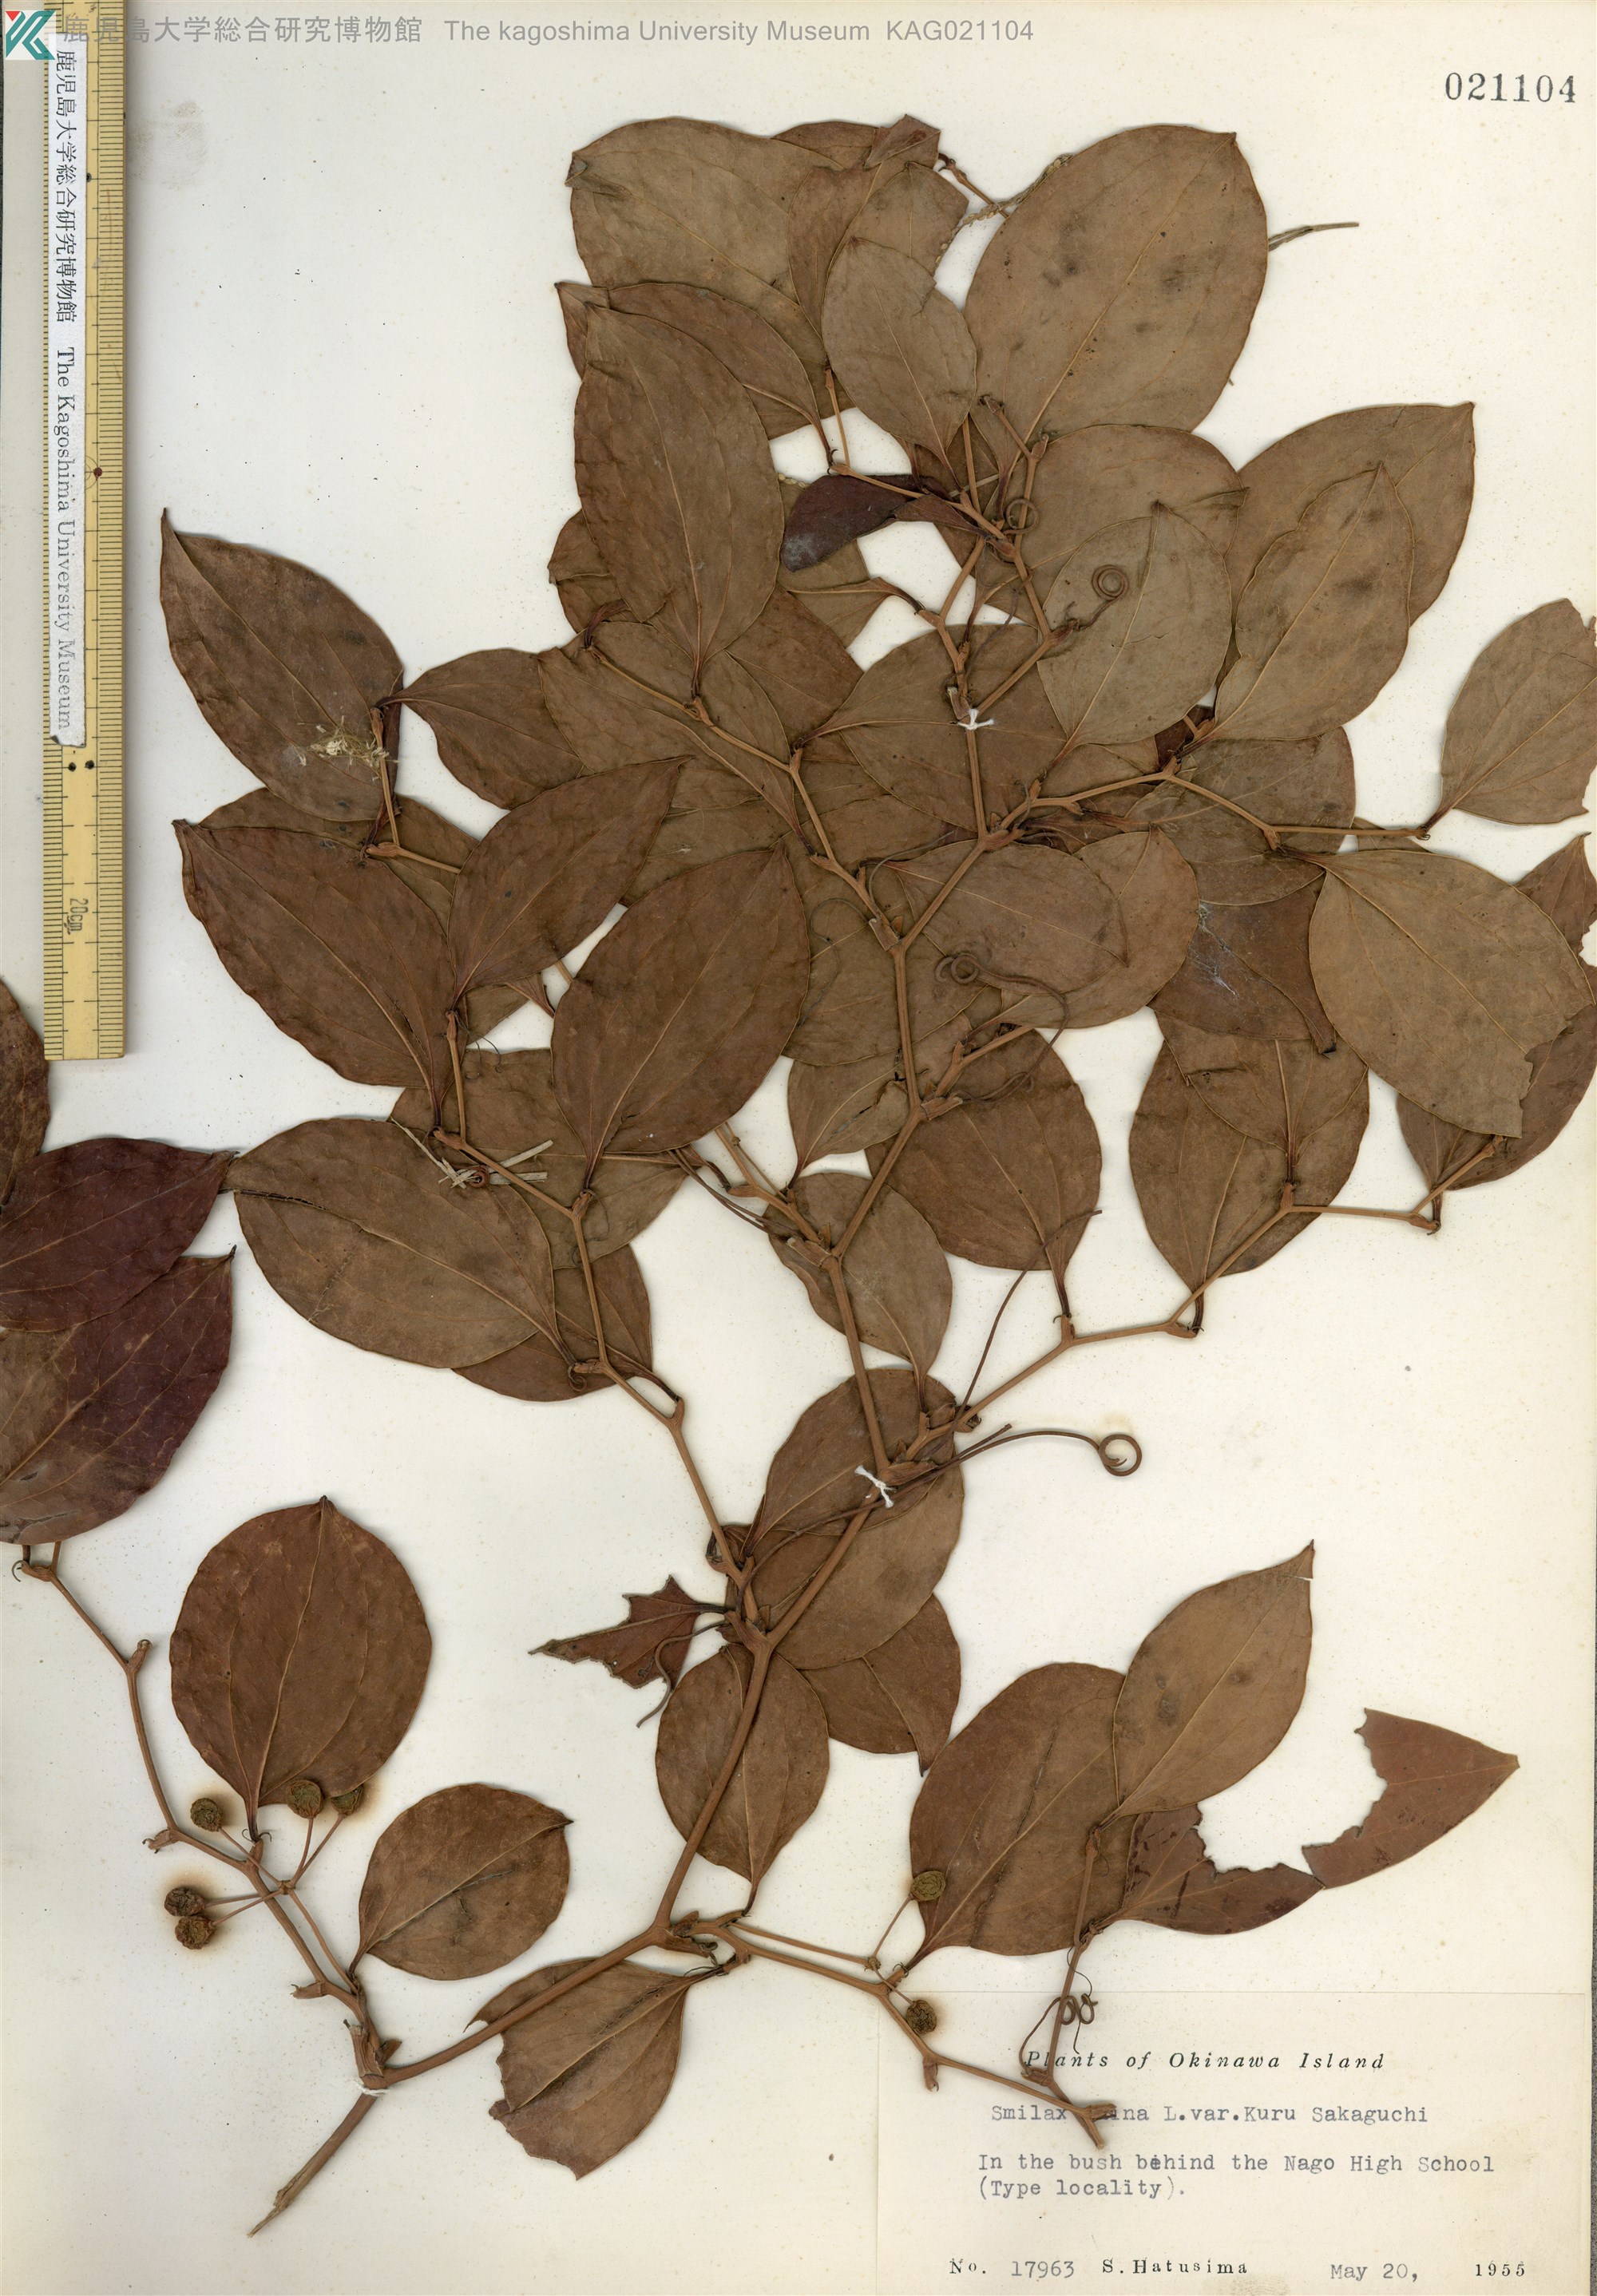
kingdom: Plantae
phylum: Tracheophyta
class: Liliopsida
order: Liliales
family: Smilacaceae
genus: Smilax
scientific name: Smilax china
